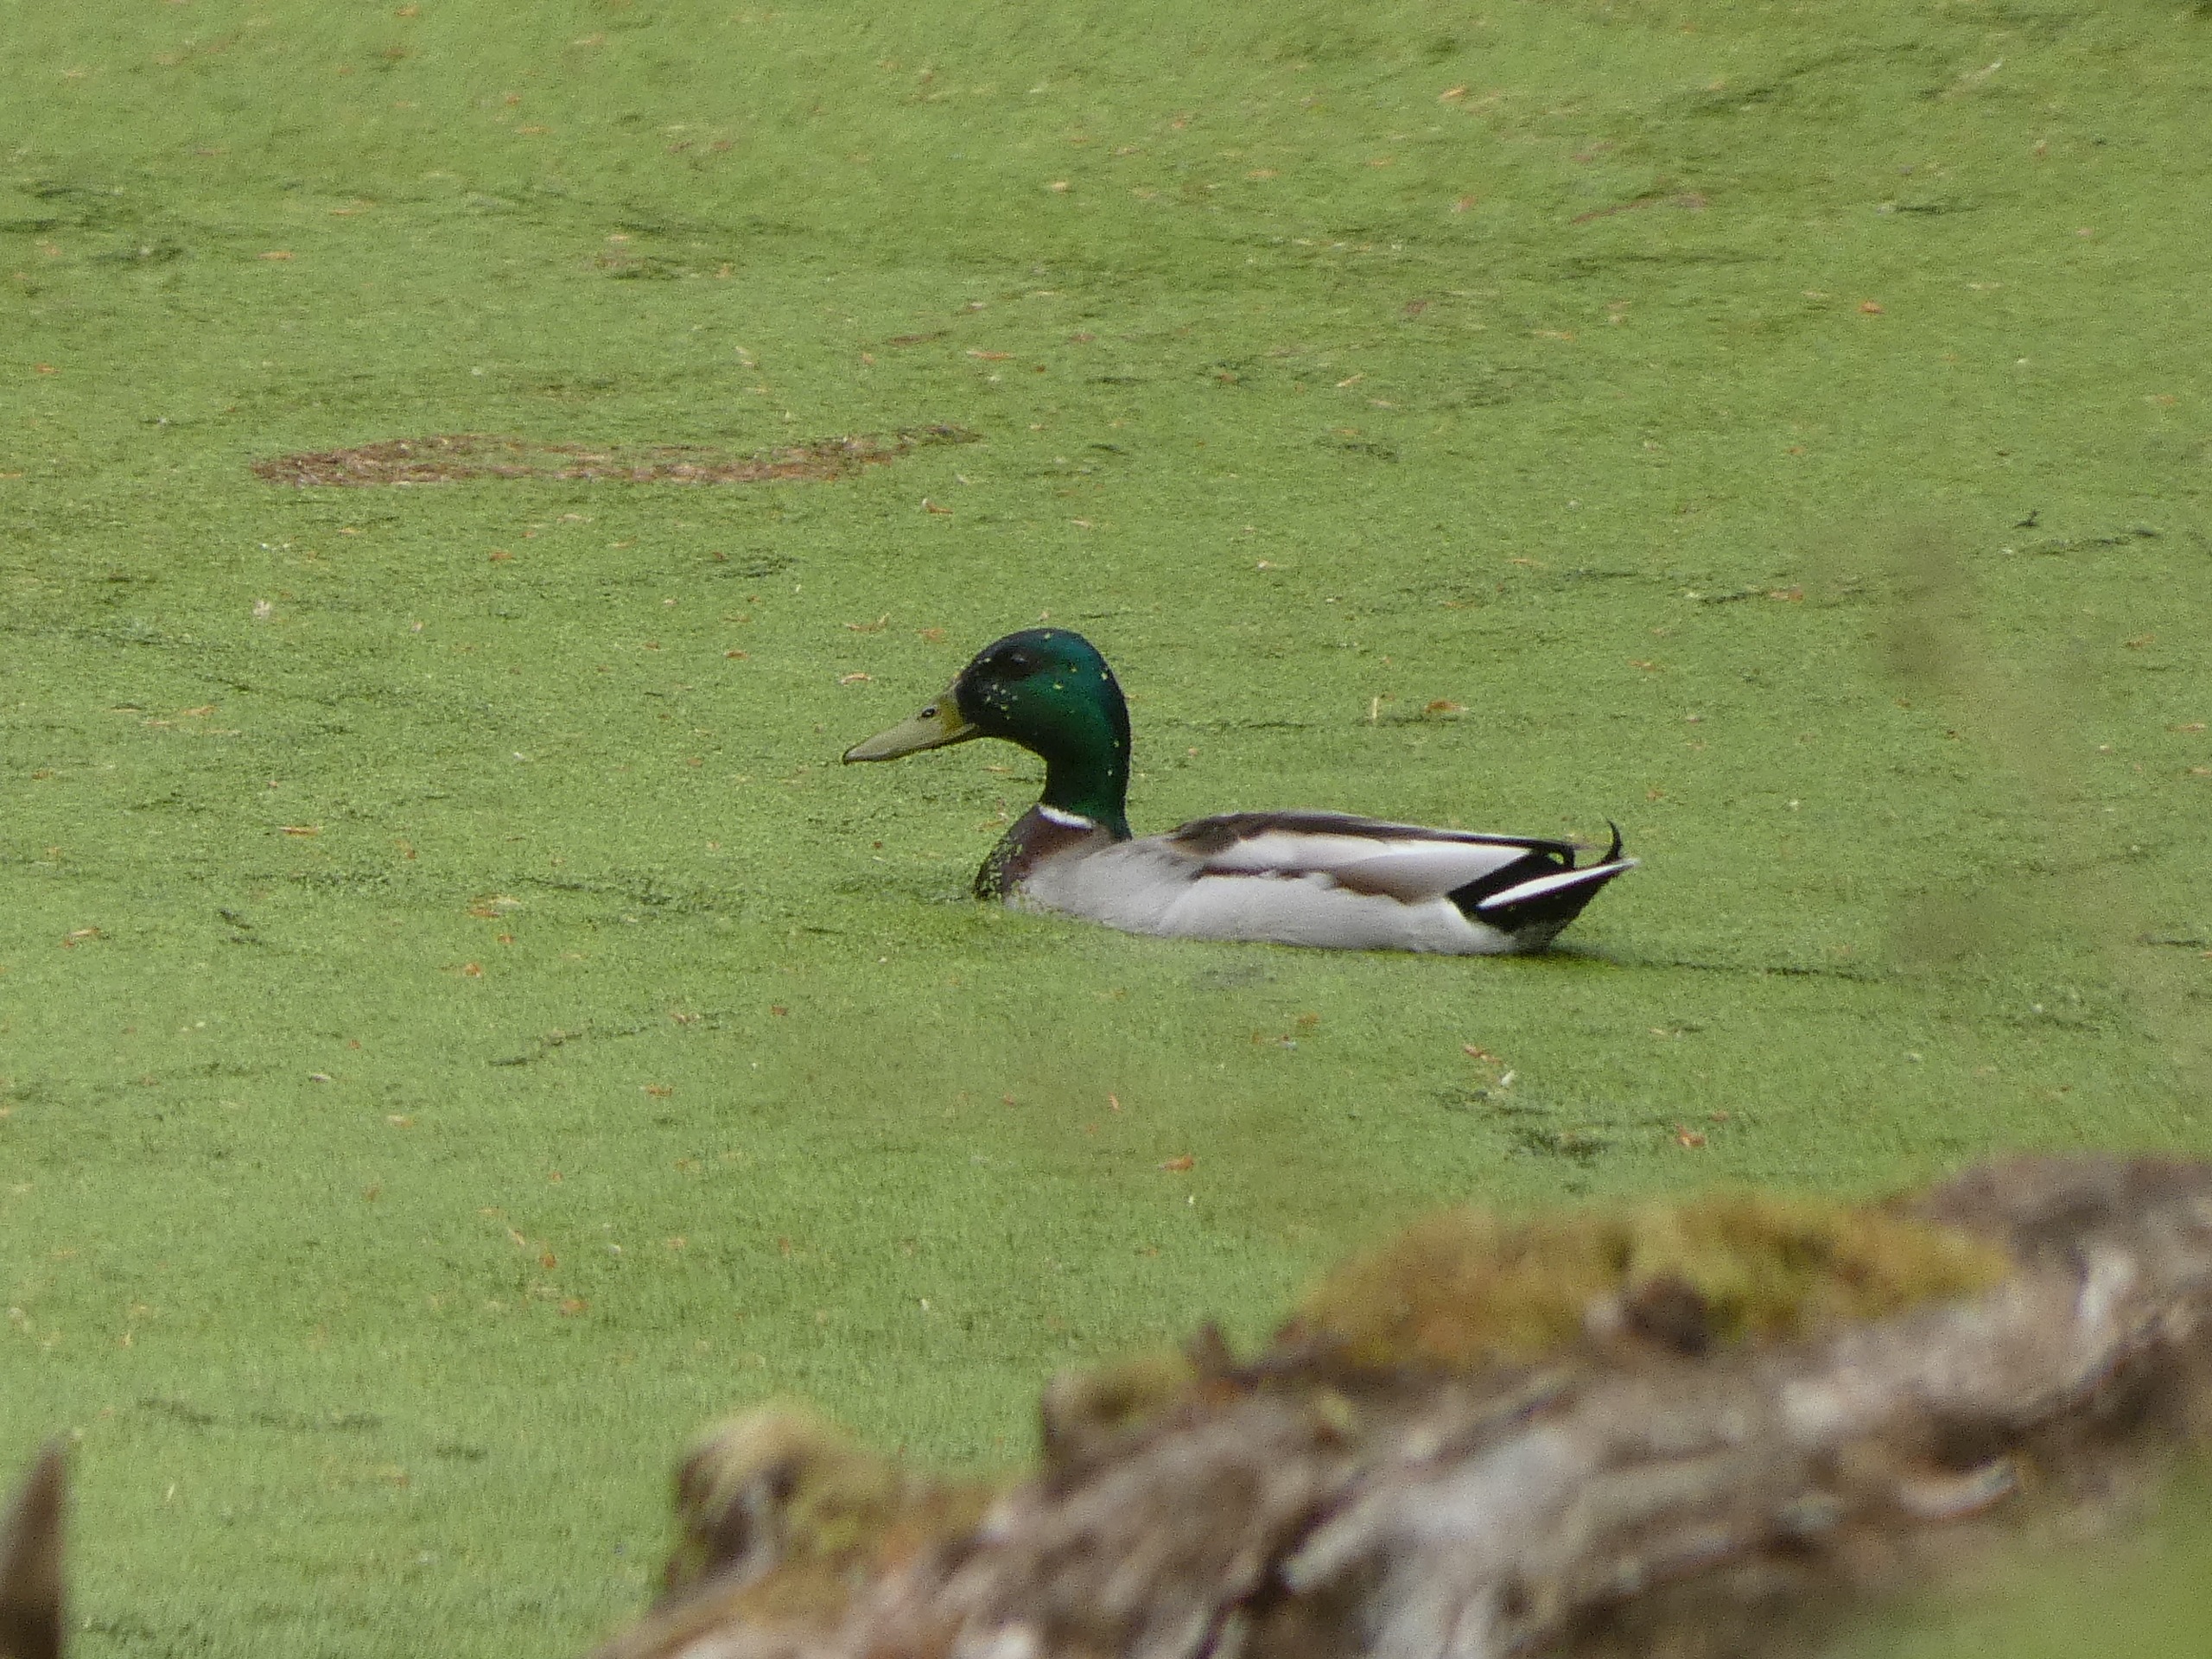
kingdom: Animalia
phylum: Chordata
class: Aves
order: Anseriformes
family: Anatidae
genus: Anas
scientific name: Anas platyrhynchos
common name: Gråand
